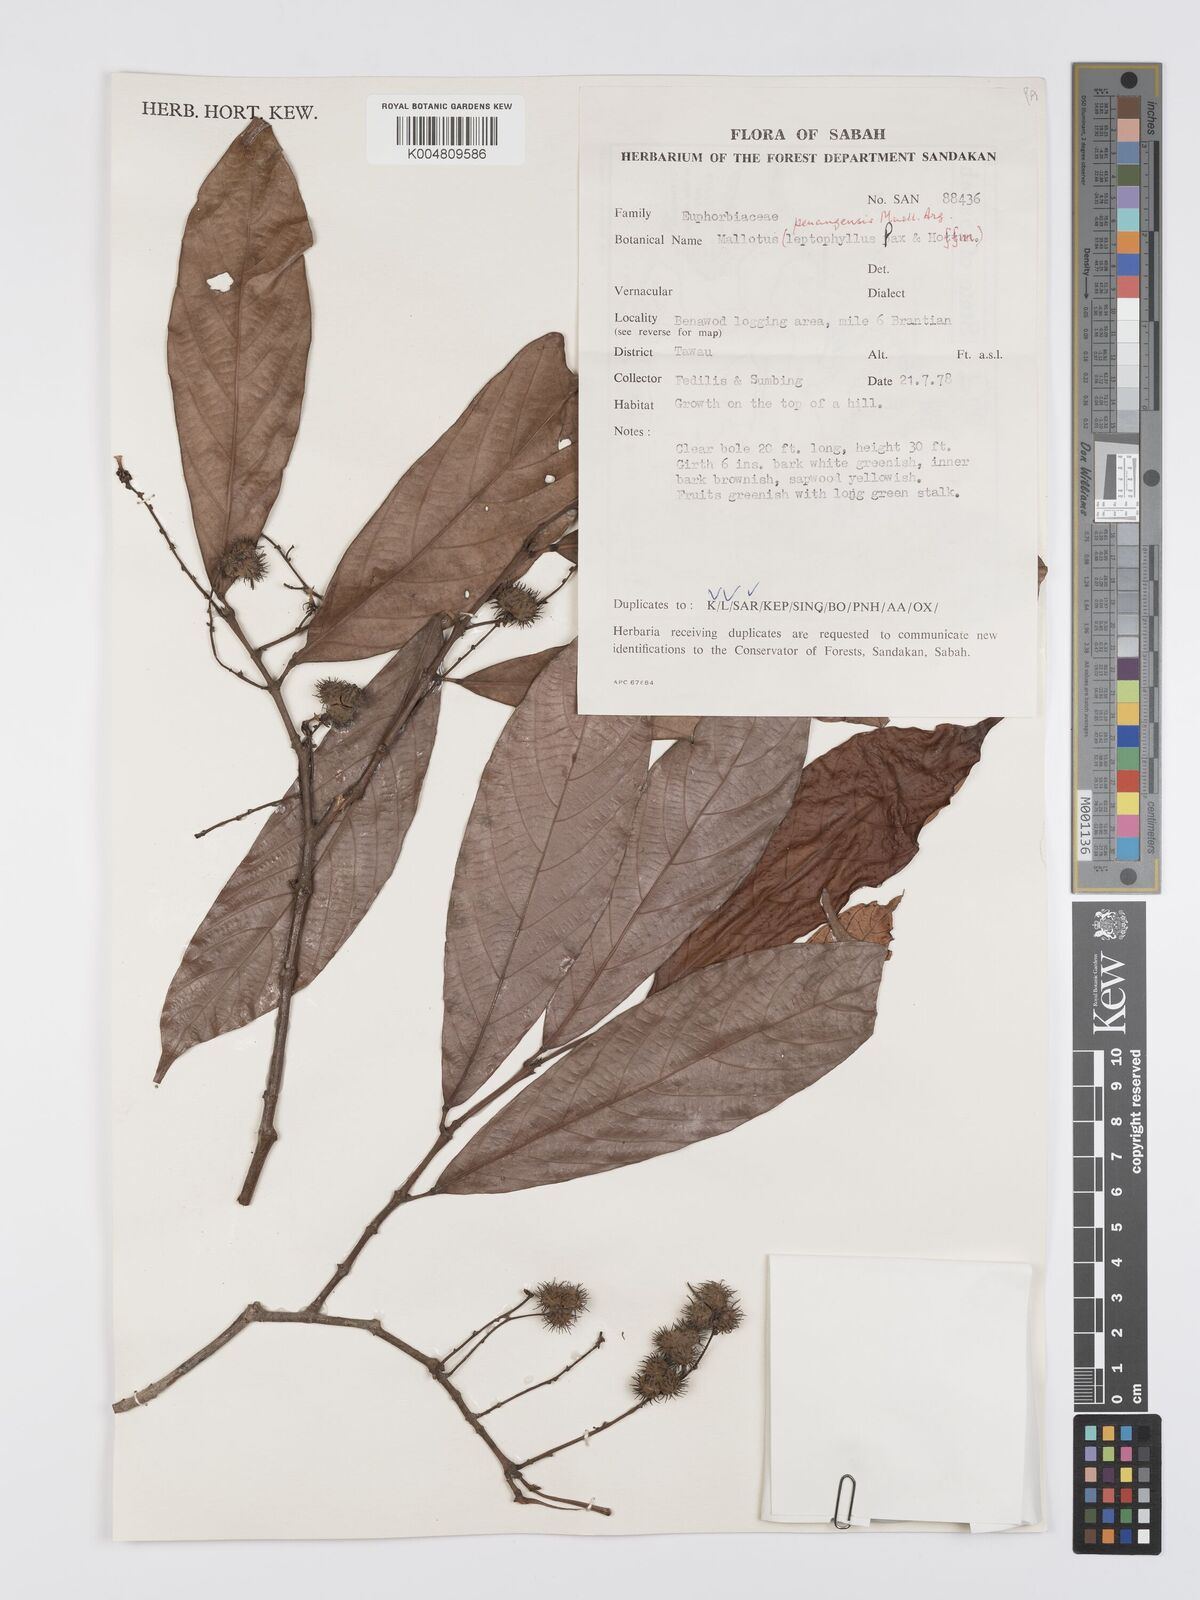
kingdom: Plantae
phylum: Tracheophyta
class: Magnoliopsida
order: Malpighiales
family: Euphorbiaceae
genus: Hancea
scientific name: Hancea penangensis
